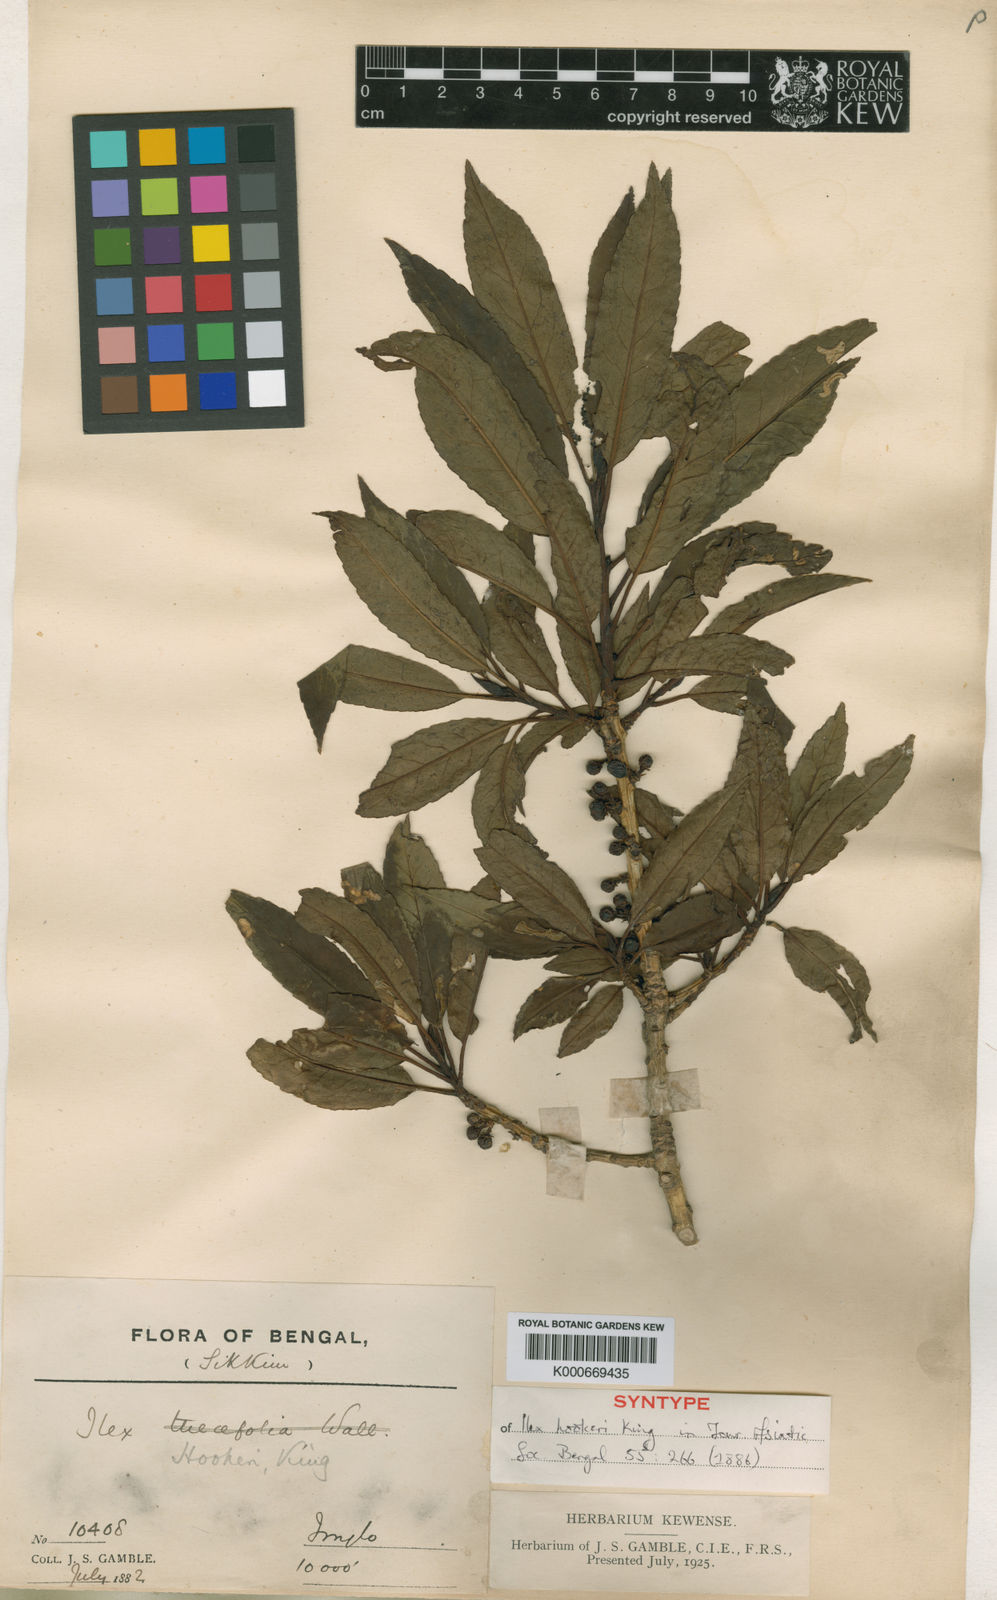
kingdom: Plantae
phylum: Tracheophyta
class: Magnoliopsida
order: Aquifoliales
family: Aquifoliaceae
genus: Ilex
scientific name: Ilex hookeri
